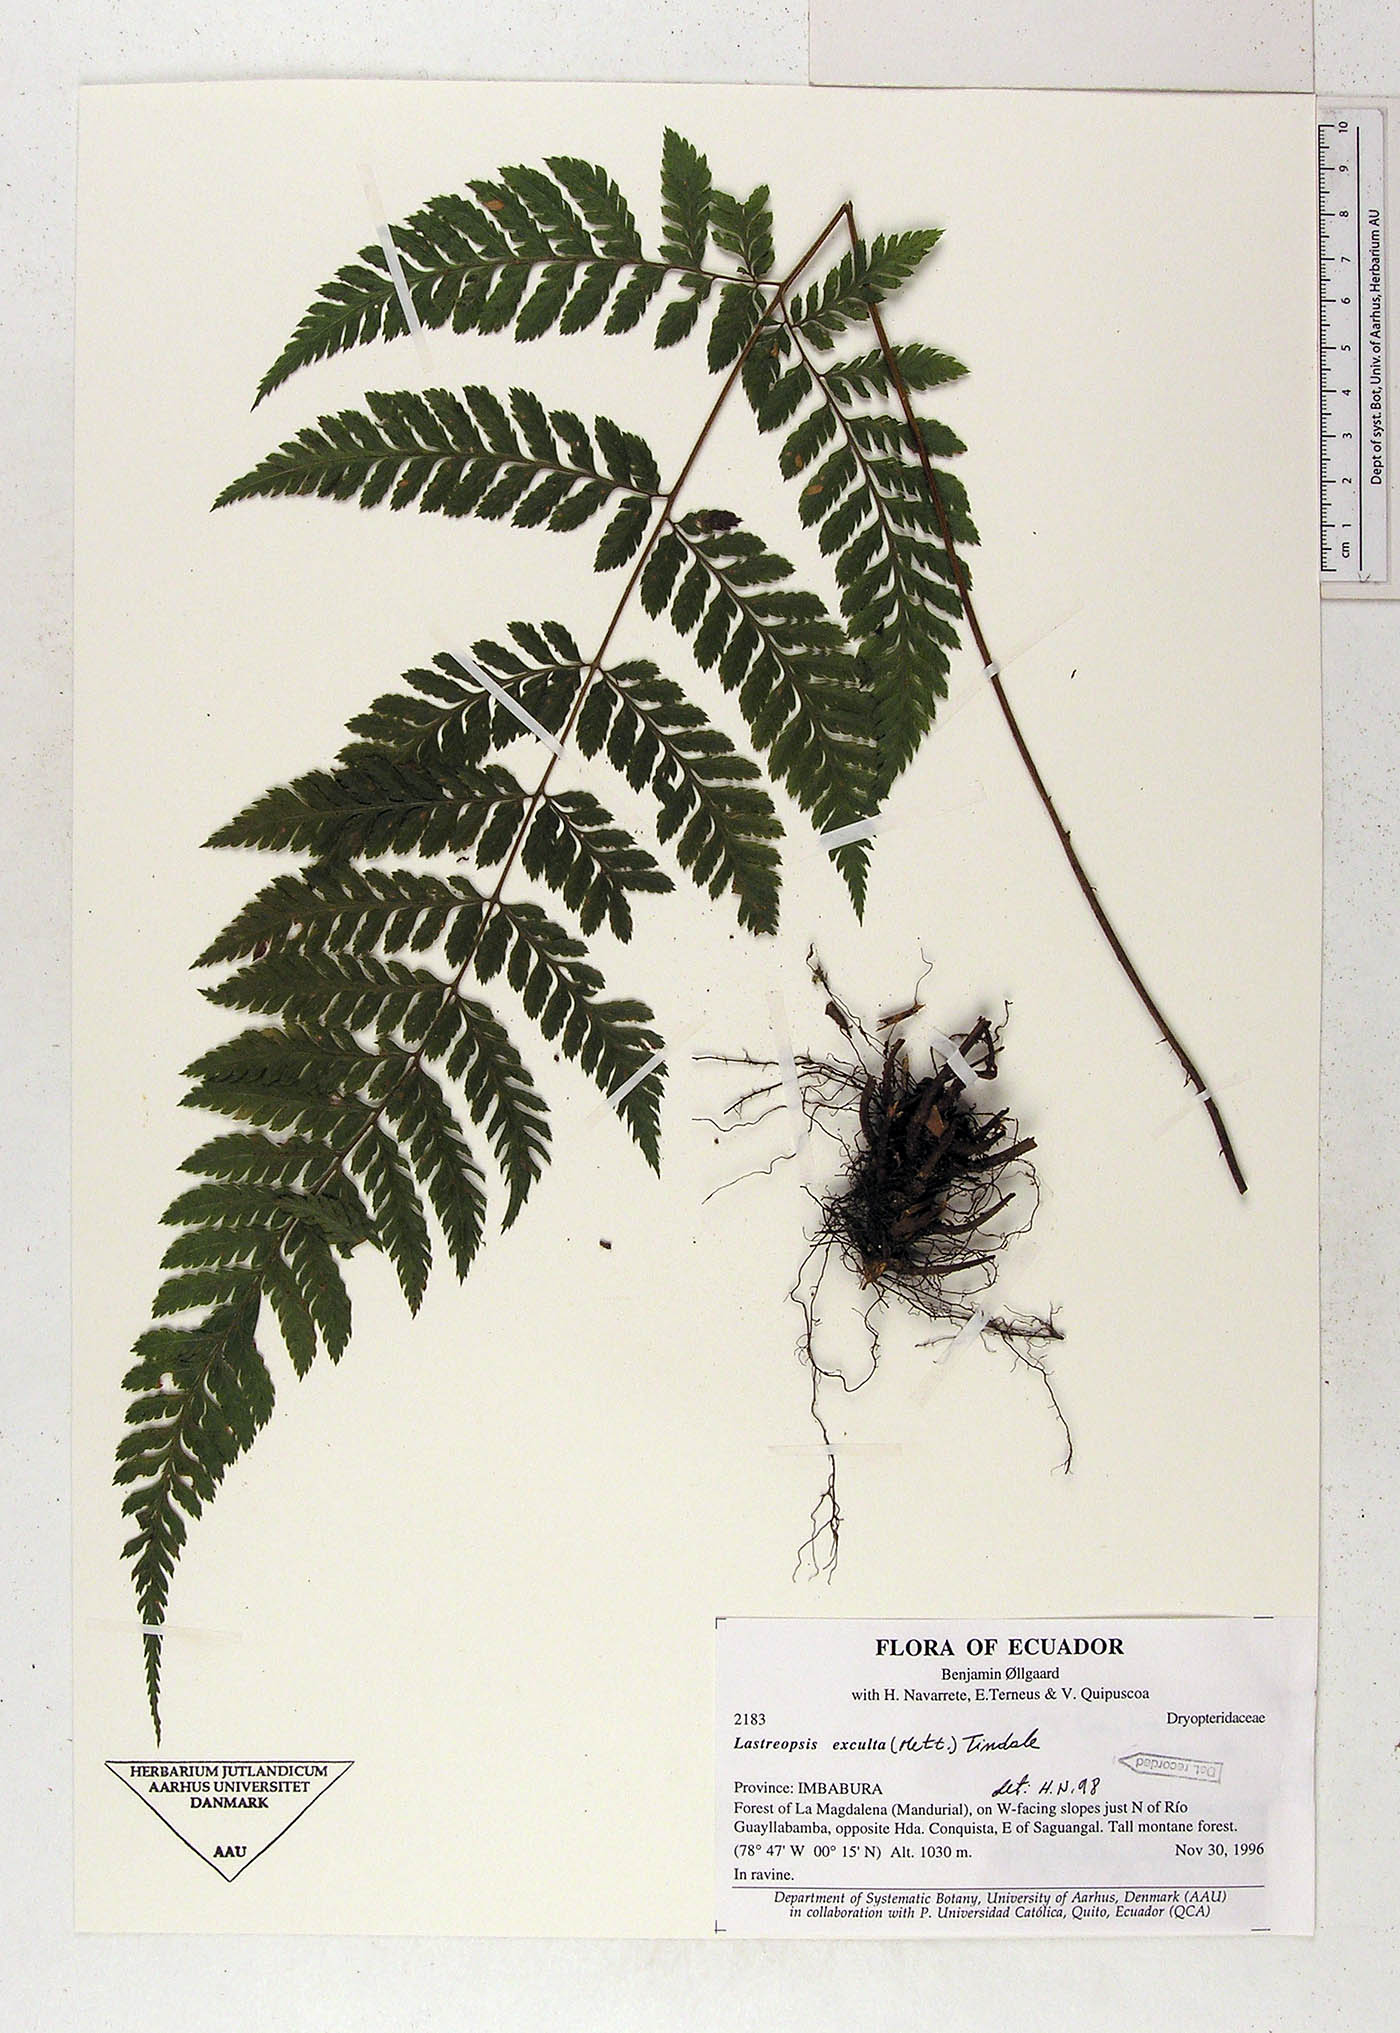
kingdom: Plantae
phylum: Tracheophyta
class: Polypodiopsida
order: Polypodiales
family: Dryopteridaceae
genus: Parapolystichum
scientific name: Parapolystichum excultum
